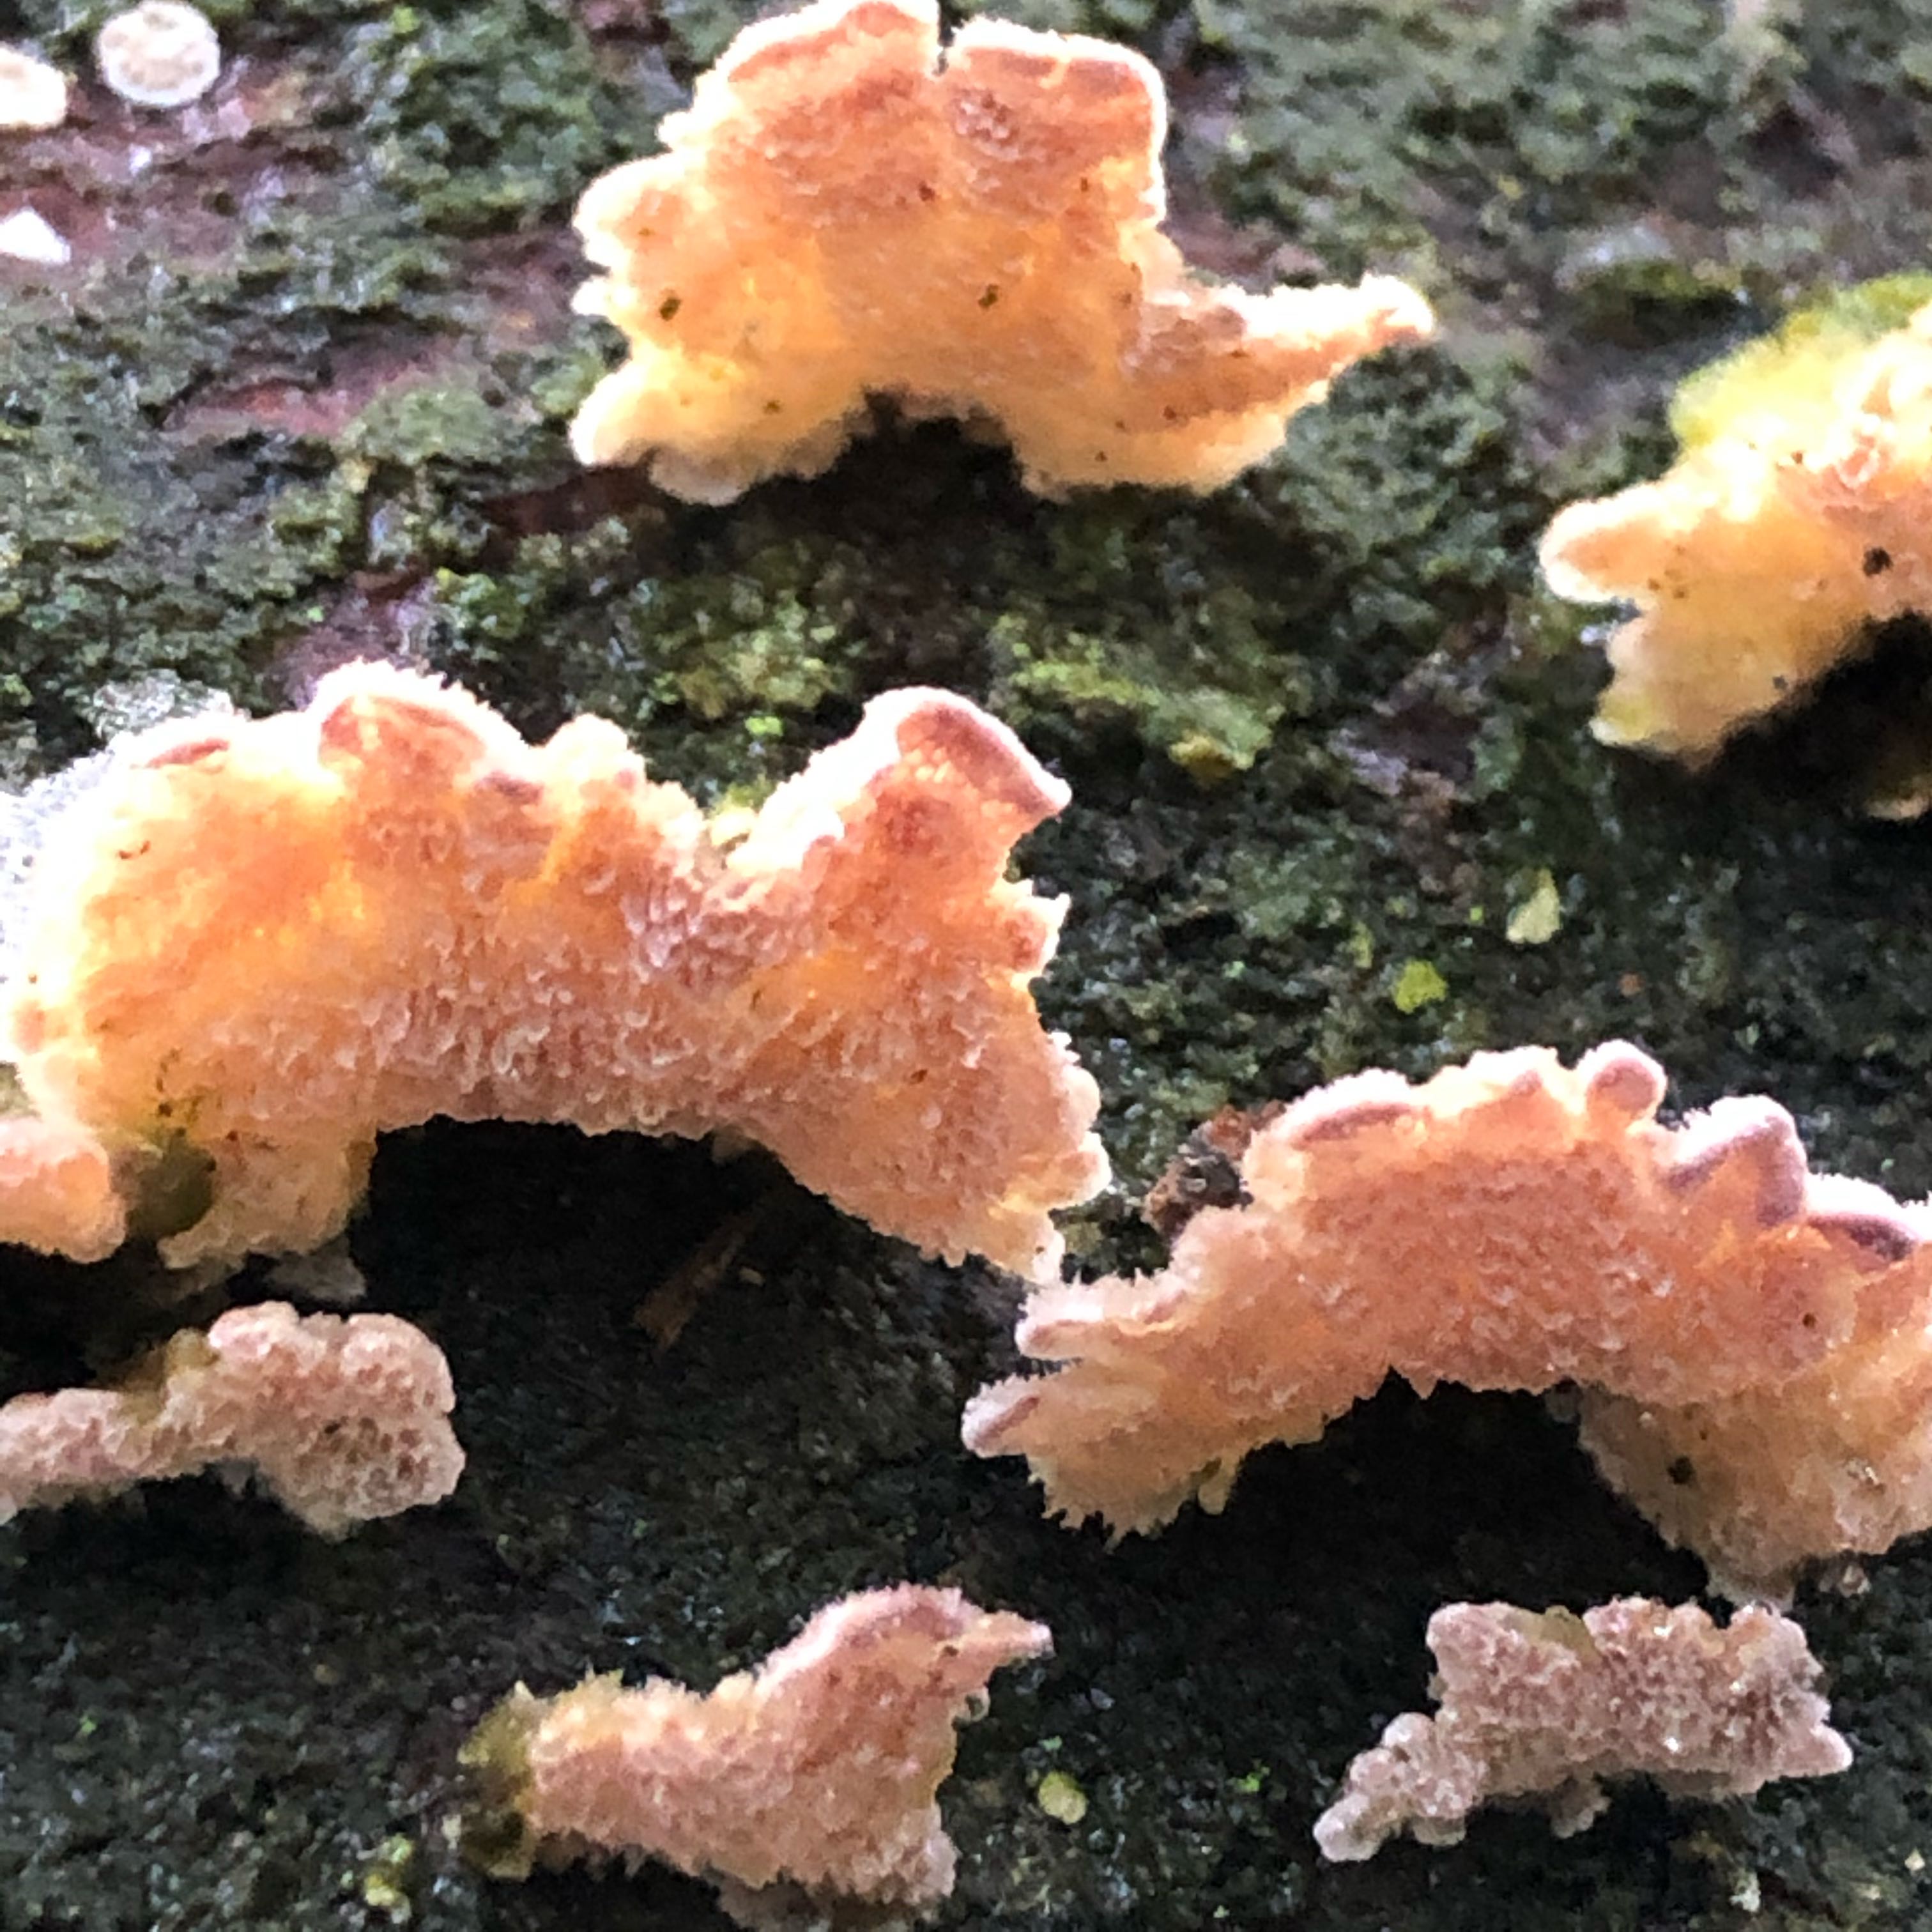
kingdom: Fungi
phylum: Basidiomycota
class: Agaricomycetes
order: Hymenochaetales
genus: Trichaptum
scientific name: Trichaptum fuscoviolaceum
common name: tandet violporesvamp
